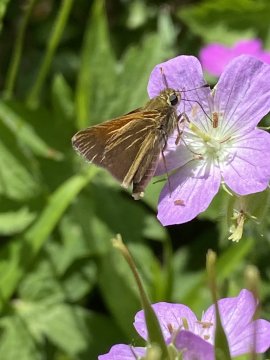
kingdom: Animalia
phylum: Arthropoda
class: Insecta
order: Lepidoptera
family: Hesperiidae
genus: Polites
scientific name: Polites themistocles
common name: Tawny-edged Skipper
